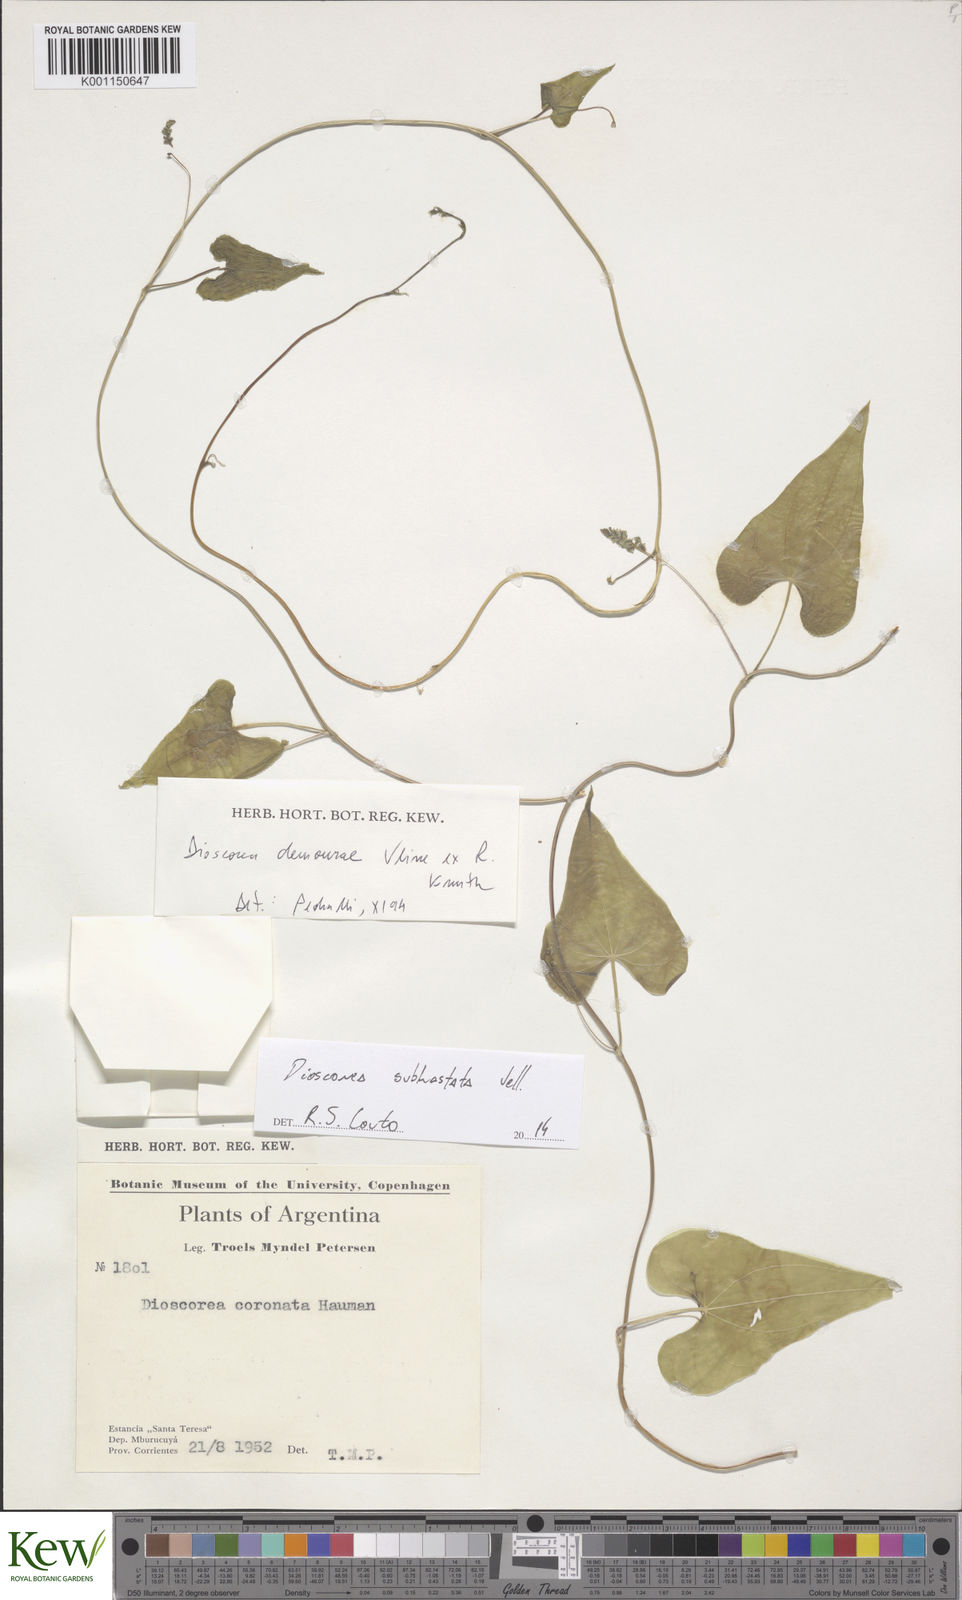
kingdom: Plantae
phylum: Tracheophyta
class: Liliopsida
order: Dioscoreales
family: Dioscoreaceae
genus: Dioscorea
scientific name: Dioscorea cienegensis
